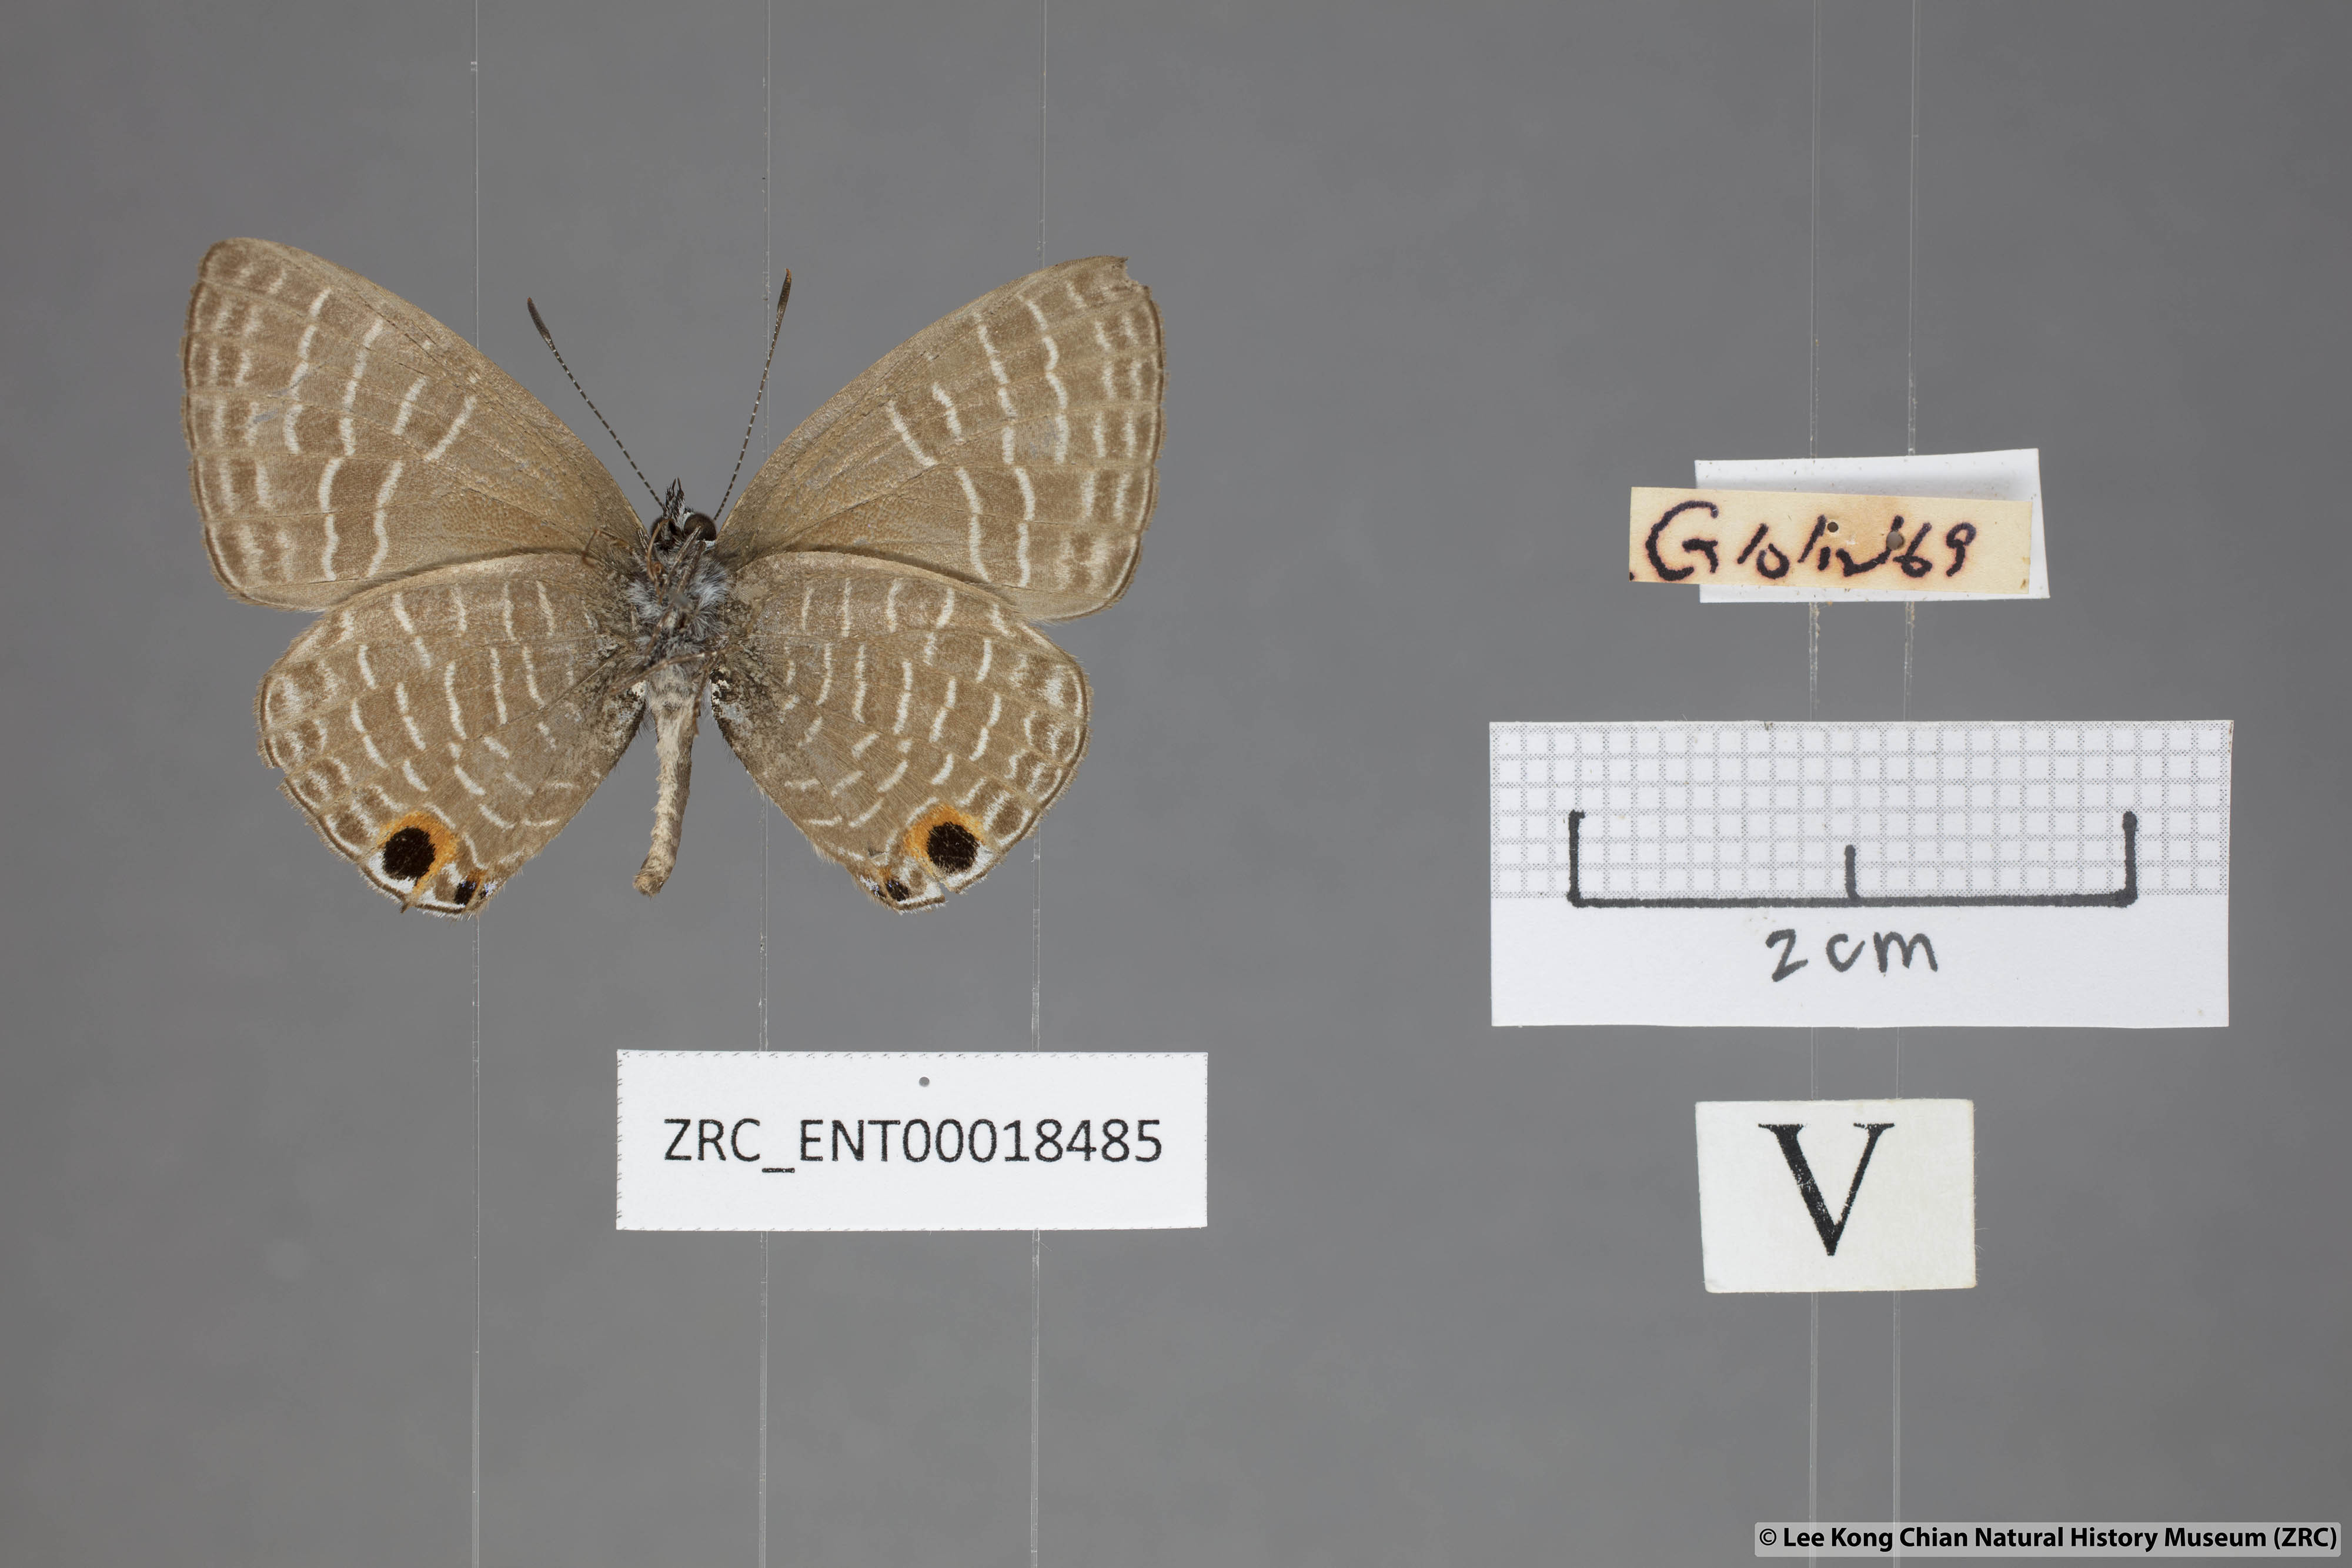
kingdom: Animalia
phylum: Arthropoda
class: Insecta
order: Lepidoptera
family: Lycaenidae
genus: Nacaduba
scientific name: Nacaduba subperusia
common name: Violet fourline blue
